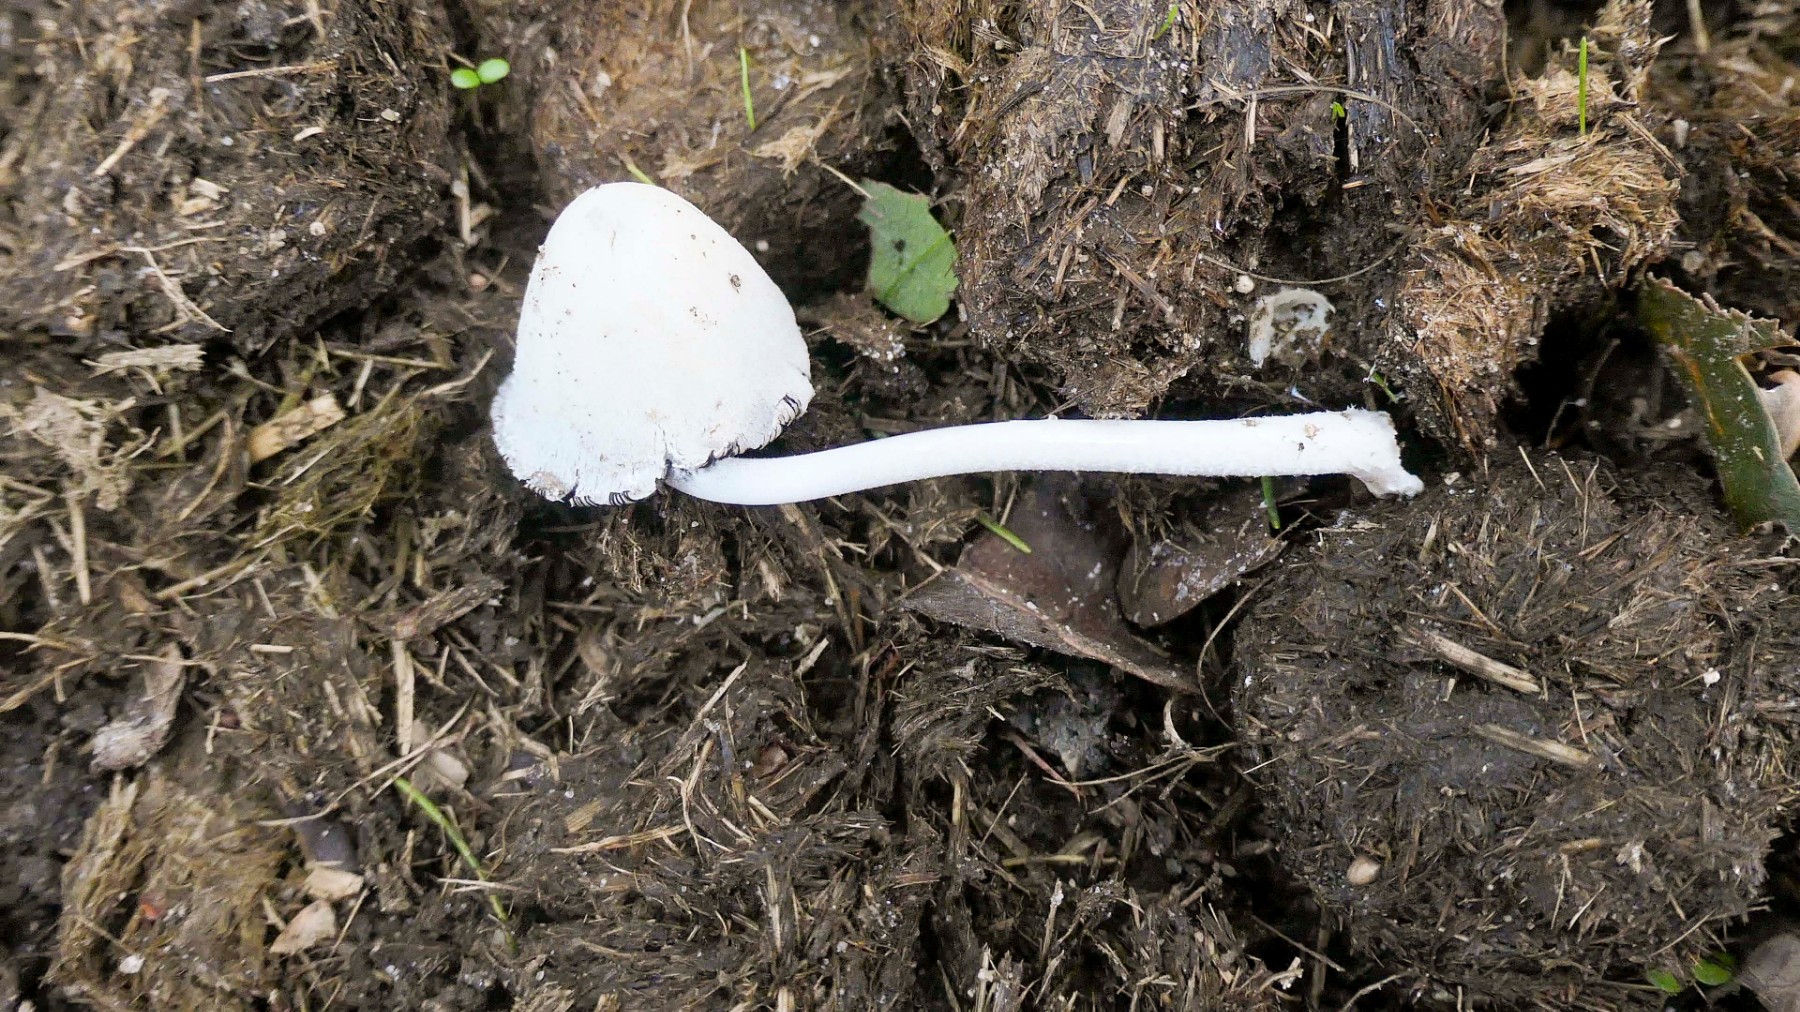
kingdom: Fungi
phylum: Basidiomycota
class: Agaricomycetes
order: Agaricales
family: Psathyrellaceae
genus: Coprinopsis
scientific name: Coprinopsis nivea
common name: snehvid blækhat
